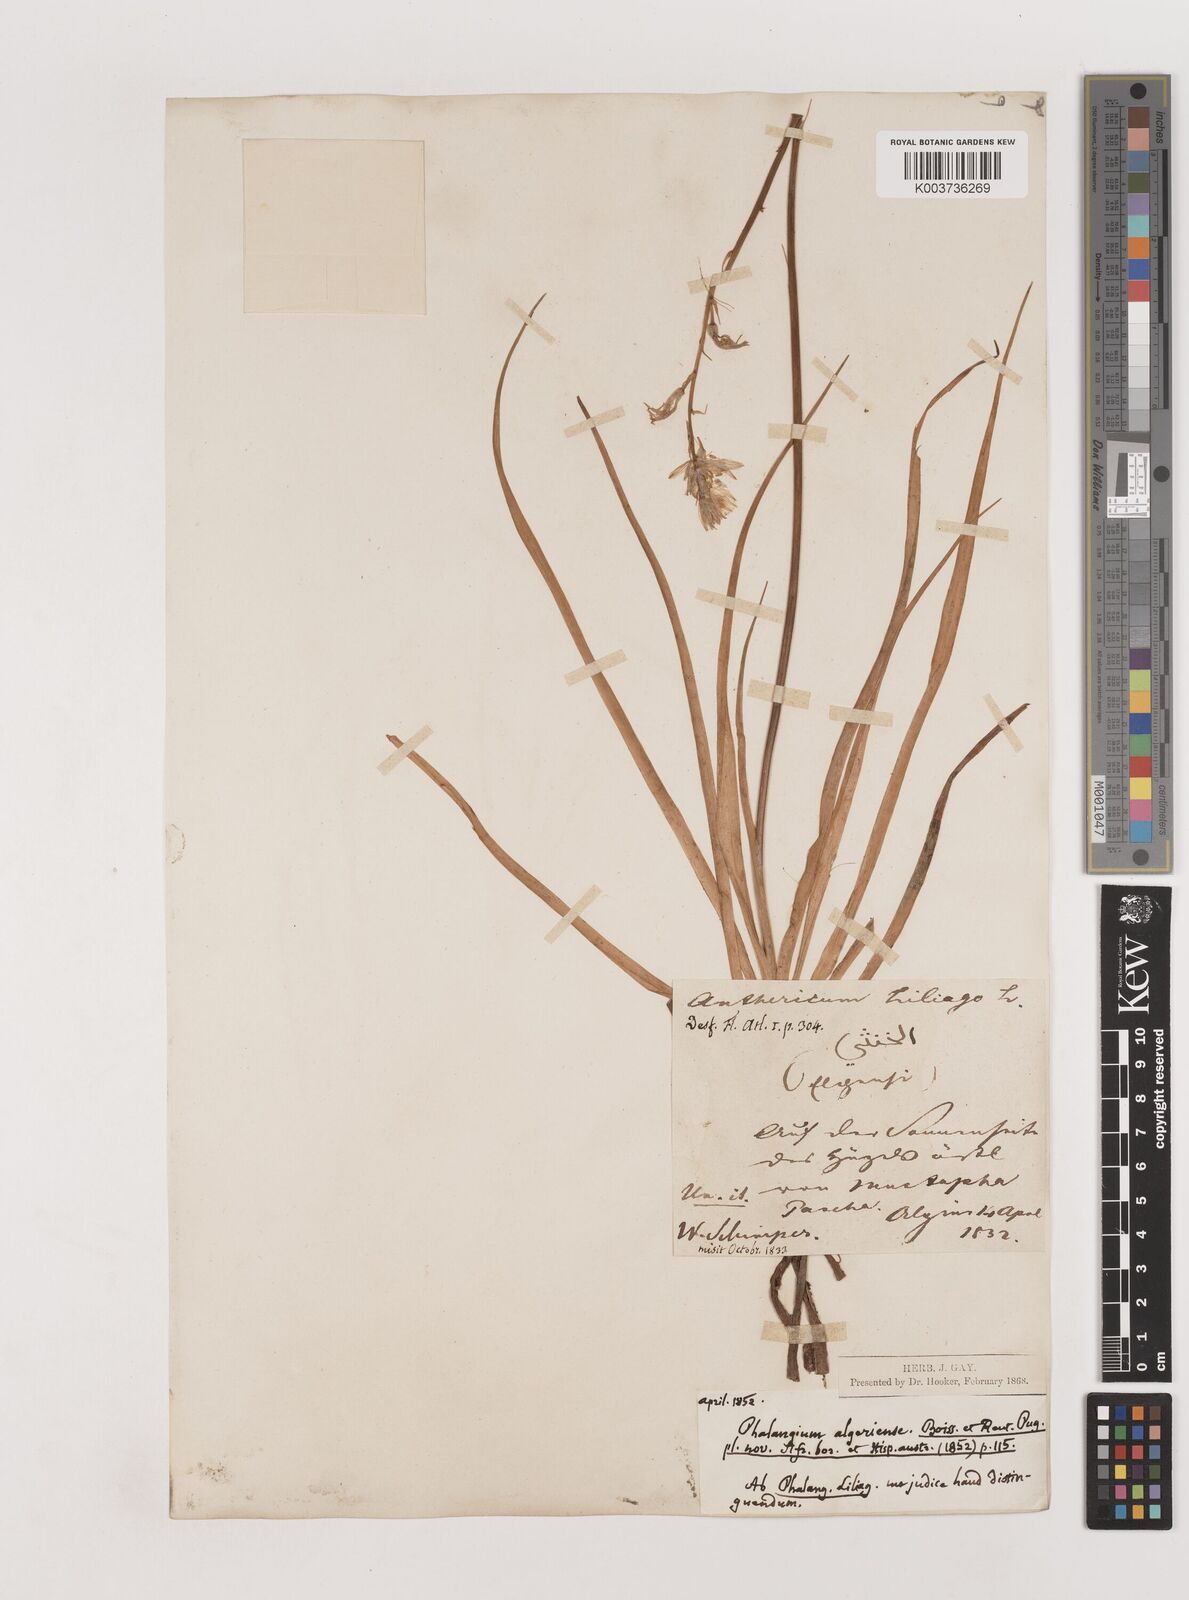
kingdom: Plantae
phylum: Tracheophyta
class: Liliopsida
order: Asparagales
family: Asparagaceae
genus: Anthericum
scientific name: Anthericum liliago
